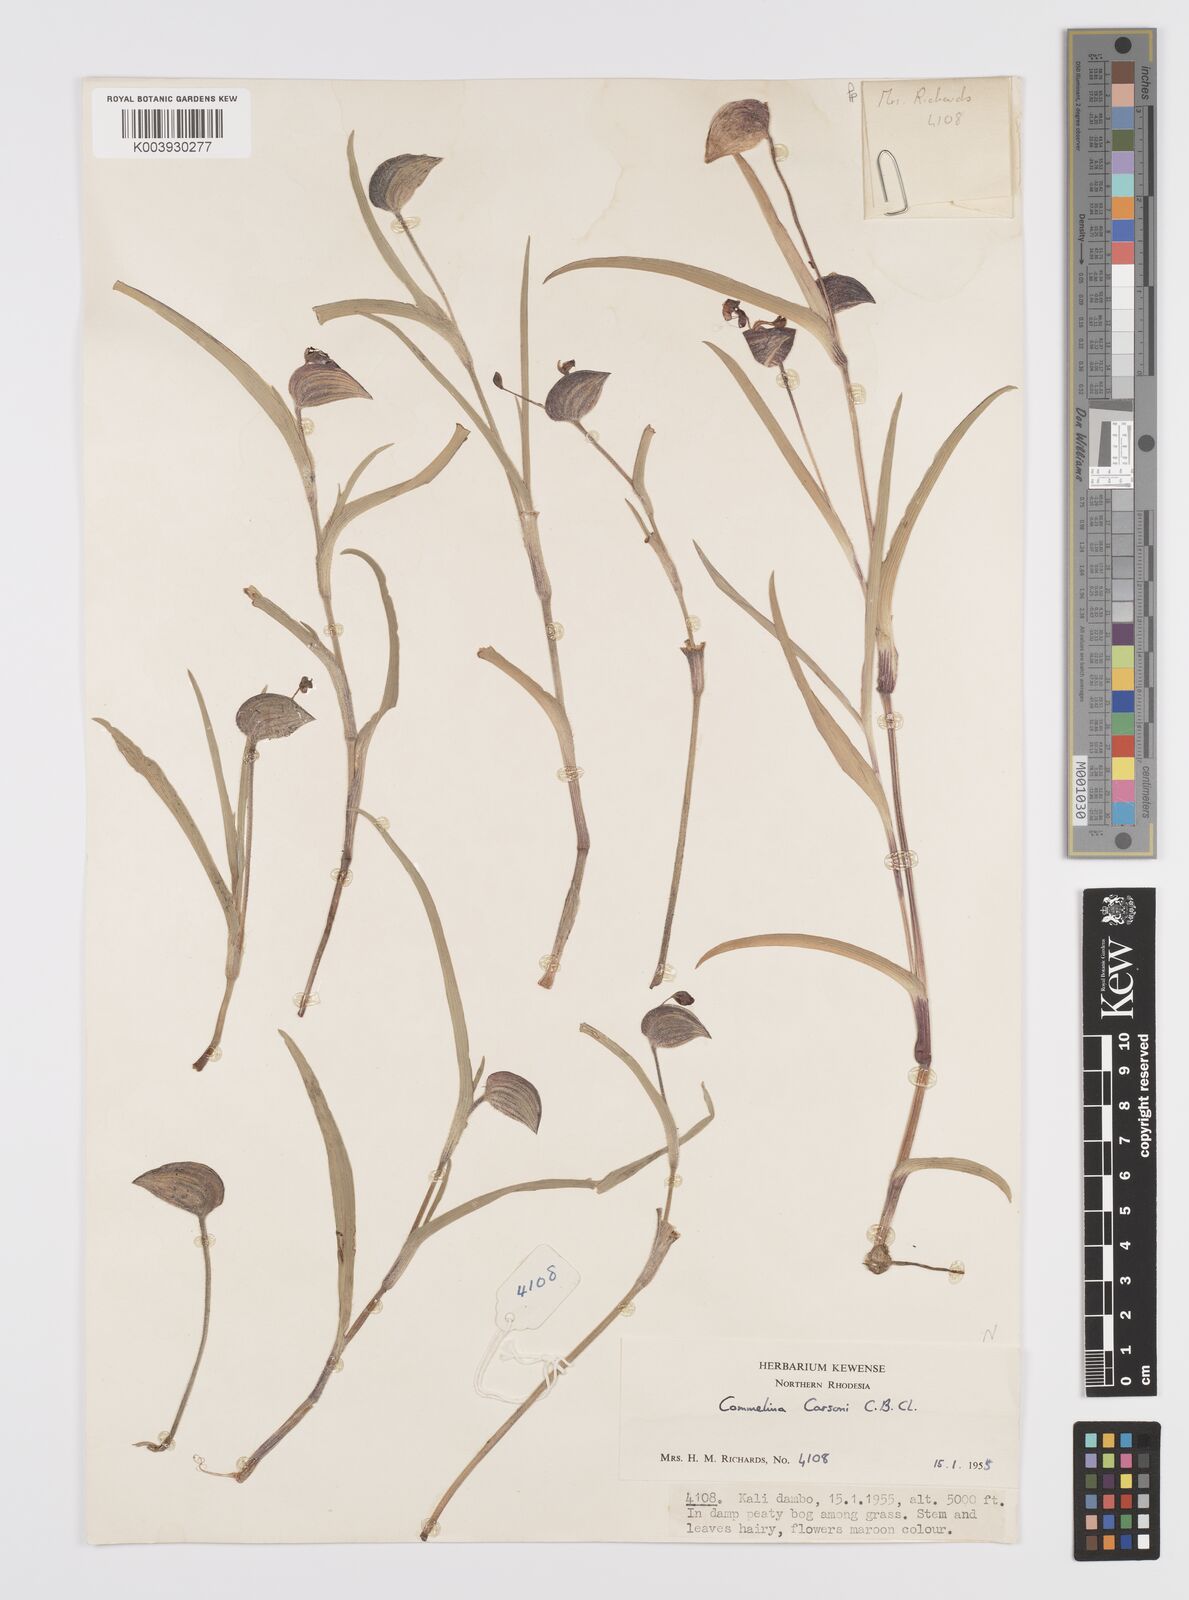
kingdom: Plantae
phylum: Tracheophyta
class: Liliopsida
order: Commelinales
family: Commelinaceae
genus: Commelina
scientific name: Commelina schweinfurthii
